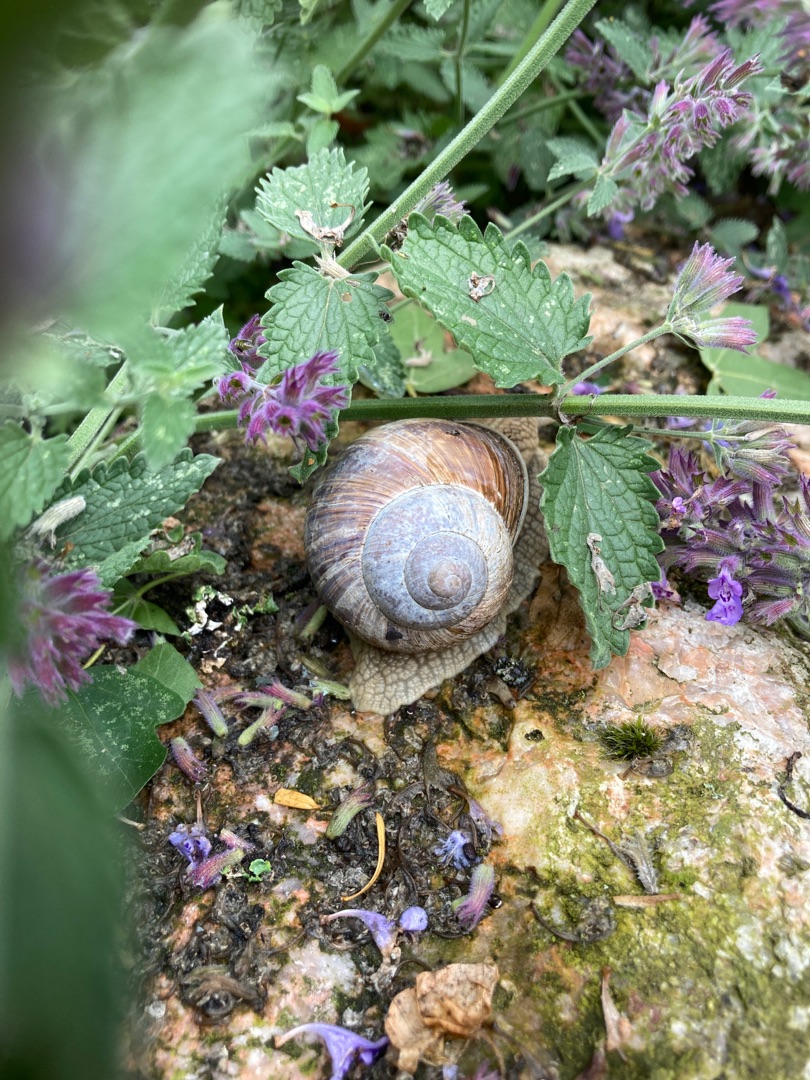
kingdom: Animalia
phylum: Mollusca
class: Gastropoda
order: Stylommatophora
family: Helicidae
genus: Helix
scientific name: Helix pomatia
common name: Vinbjergsnegl
